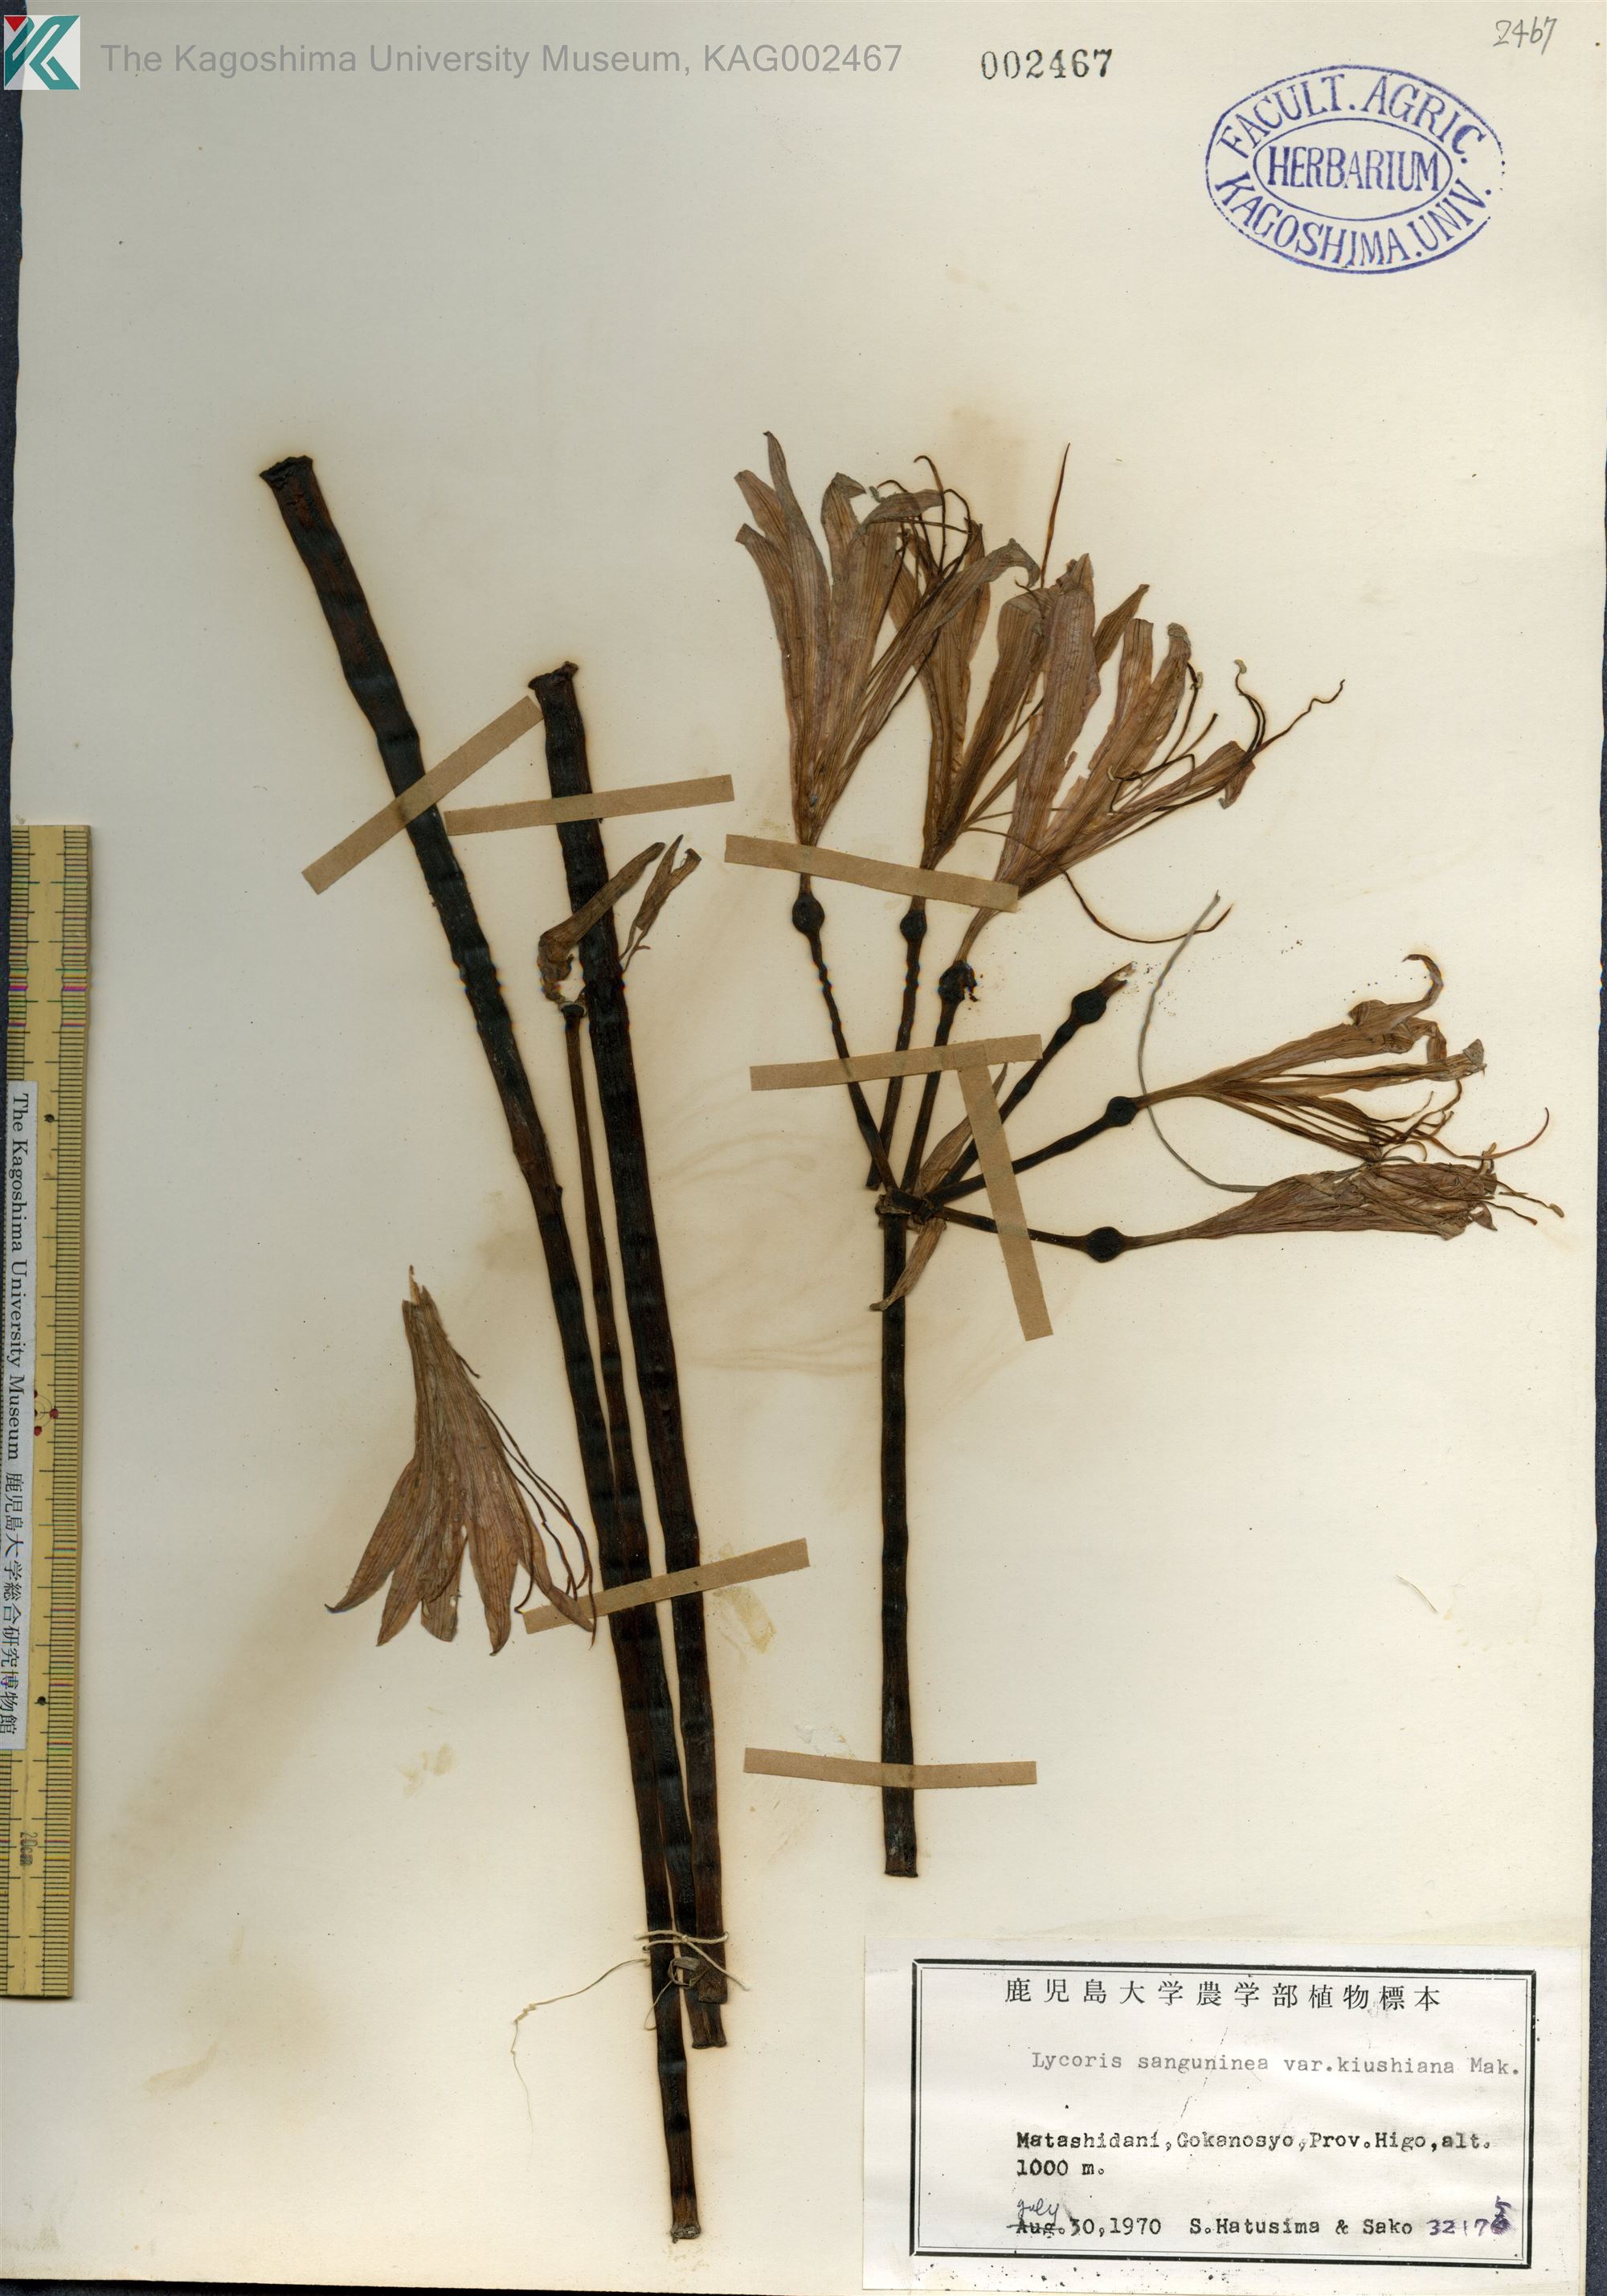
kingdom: Plantae
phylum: Tracheophyta
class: Liliopsida
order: Asparagales
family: Amaryllidaceae
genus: Lycoris
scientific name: Lycoris sanguinea
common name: Spider-lily
